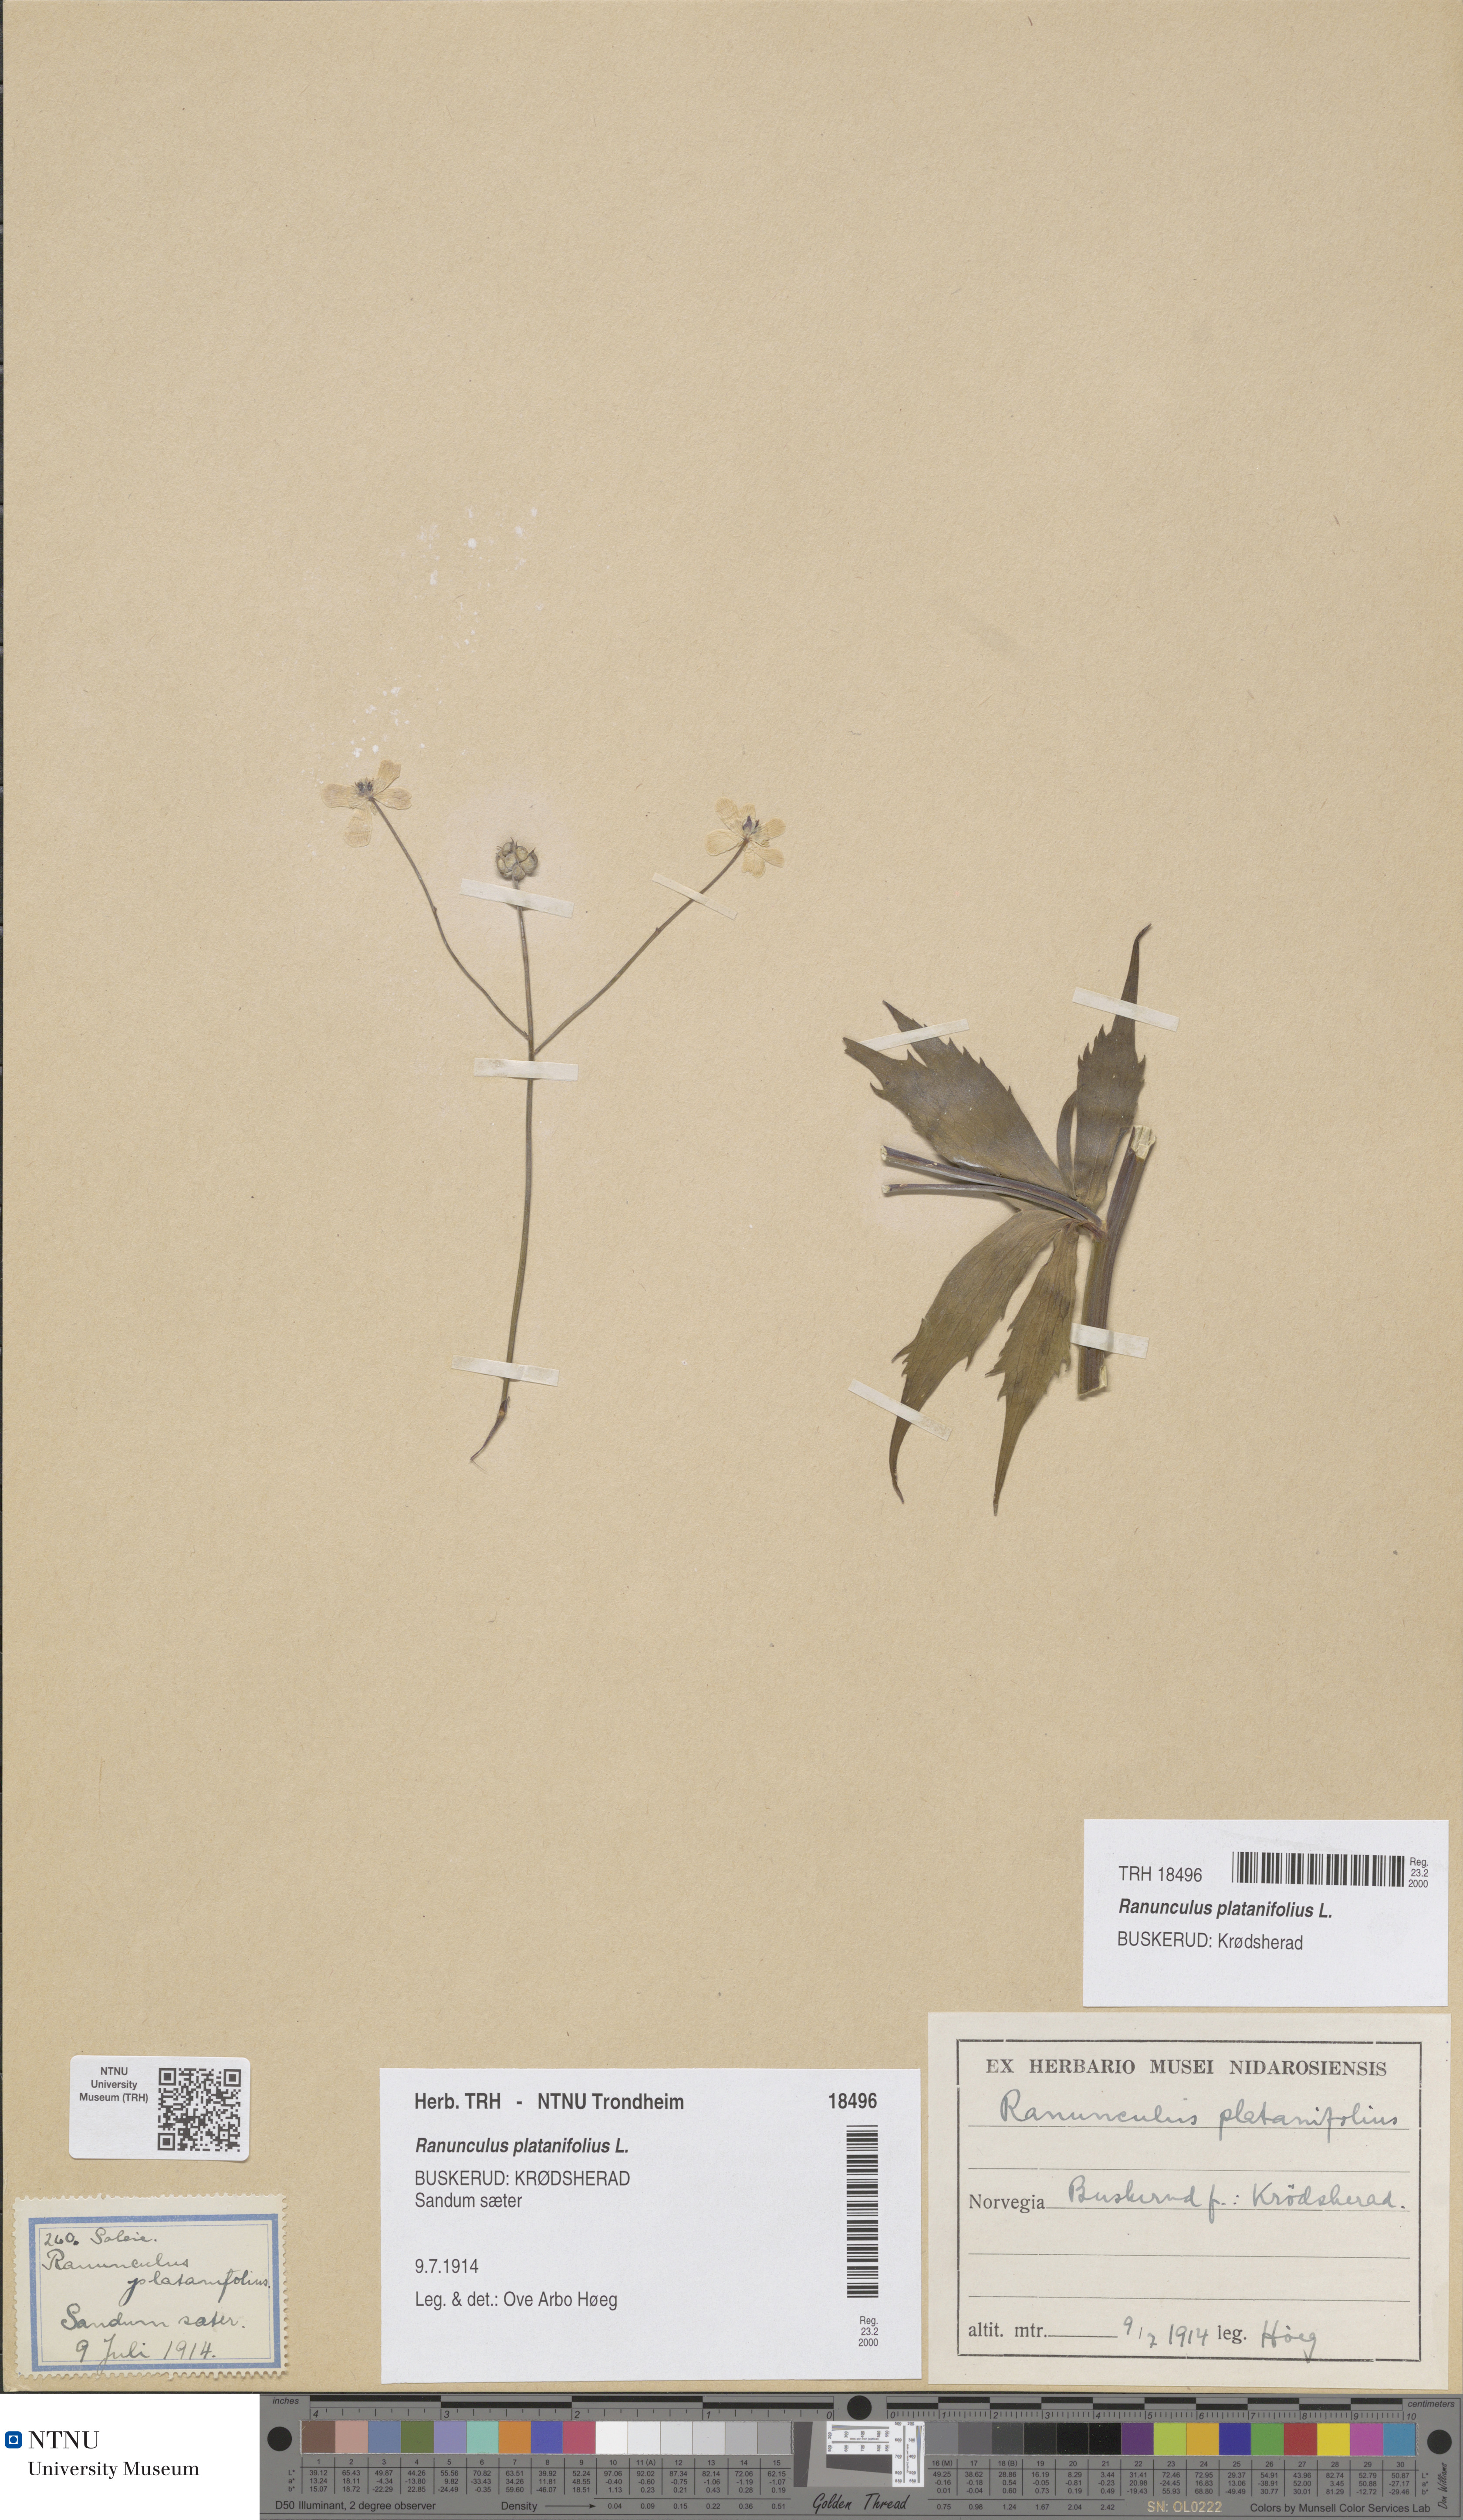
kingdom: Plantae
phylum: Tracheophyta
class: Magnoliopsida
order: Ranunculales
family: Ranunculaceae
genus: Ranunculus
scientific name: Ranunculus platanifolius
